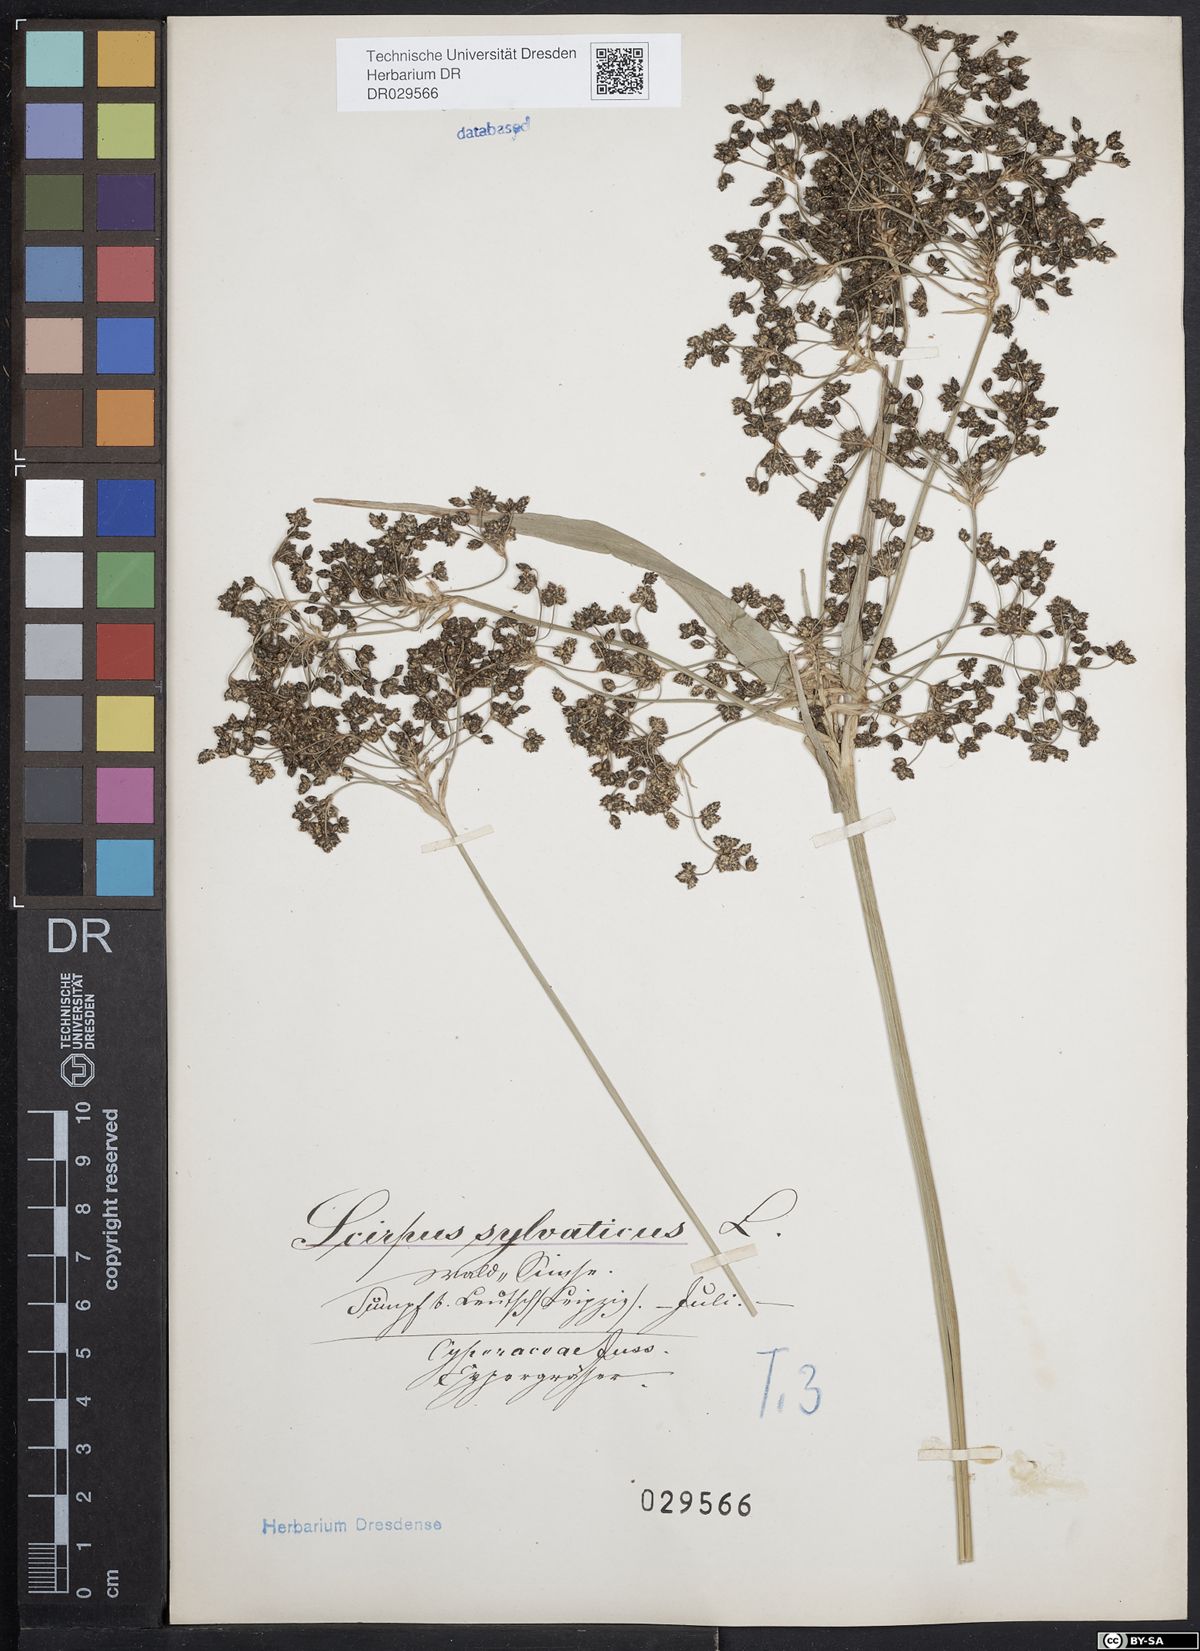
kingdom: Plantae
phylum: Tracheophyta
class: Liliopsida
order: Poales
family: Cyperaceae
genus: Scirpus
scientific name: Scirpus sylvaticus
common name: Wood club-rush
